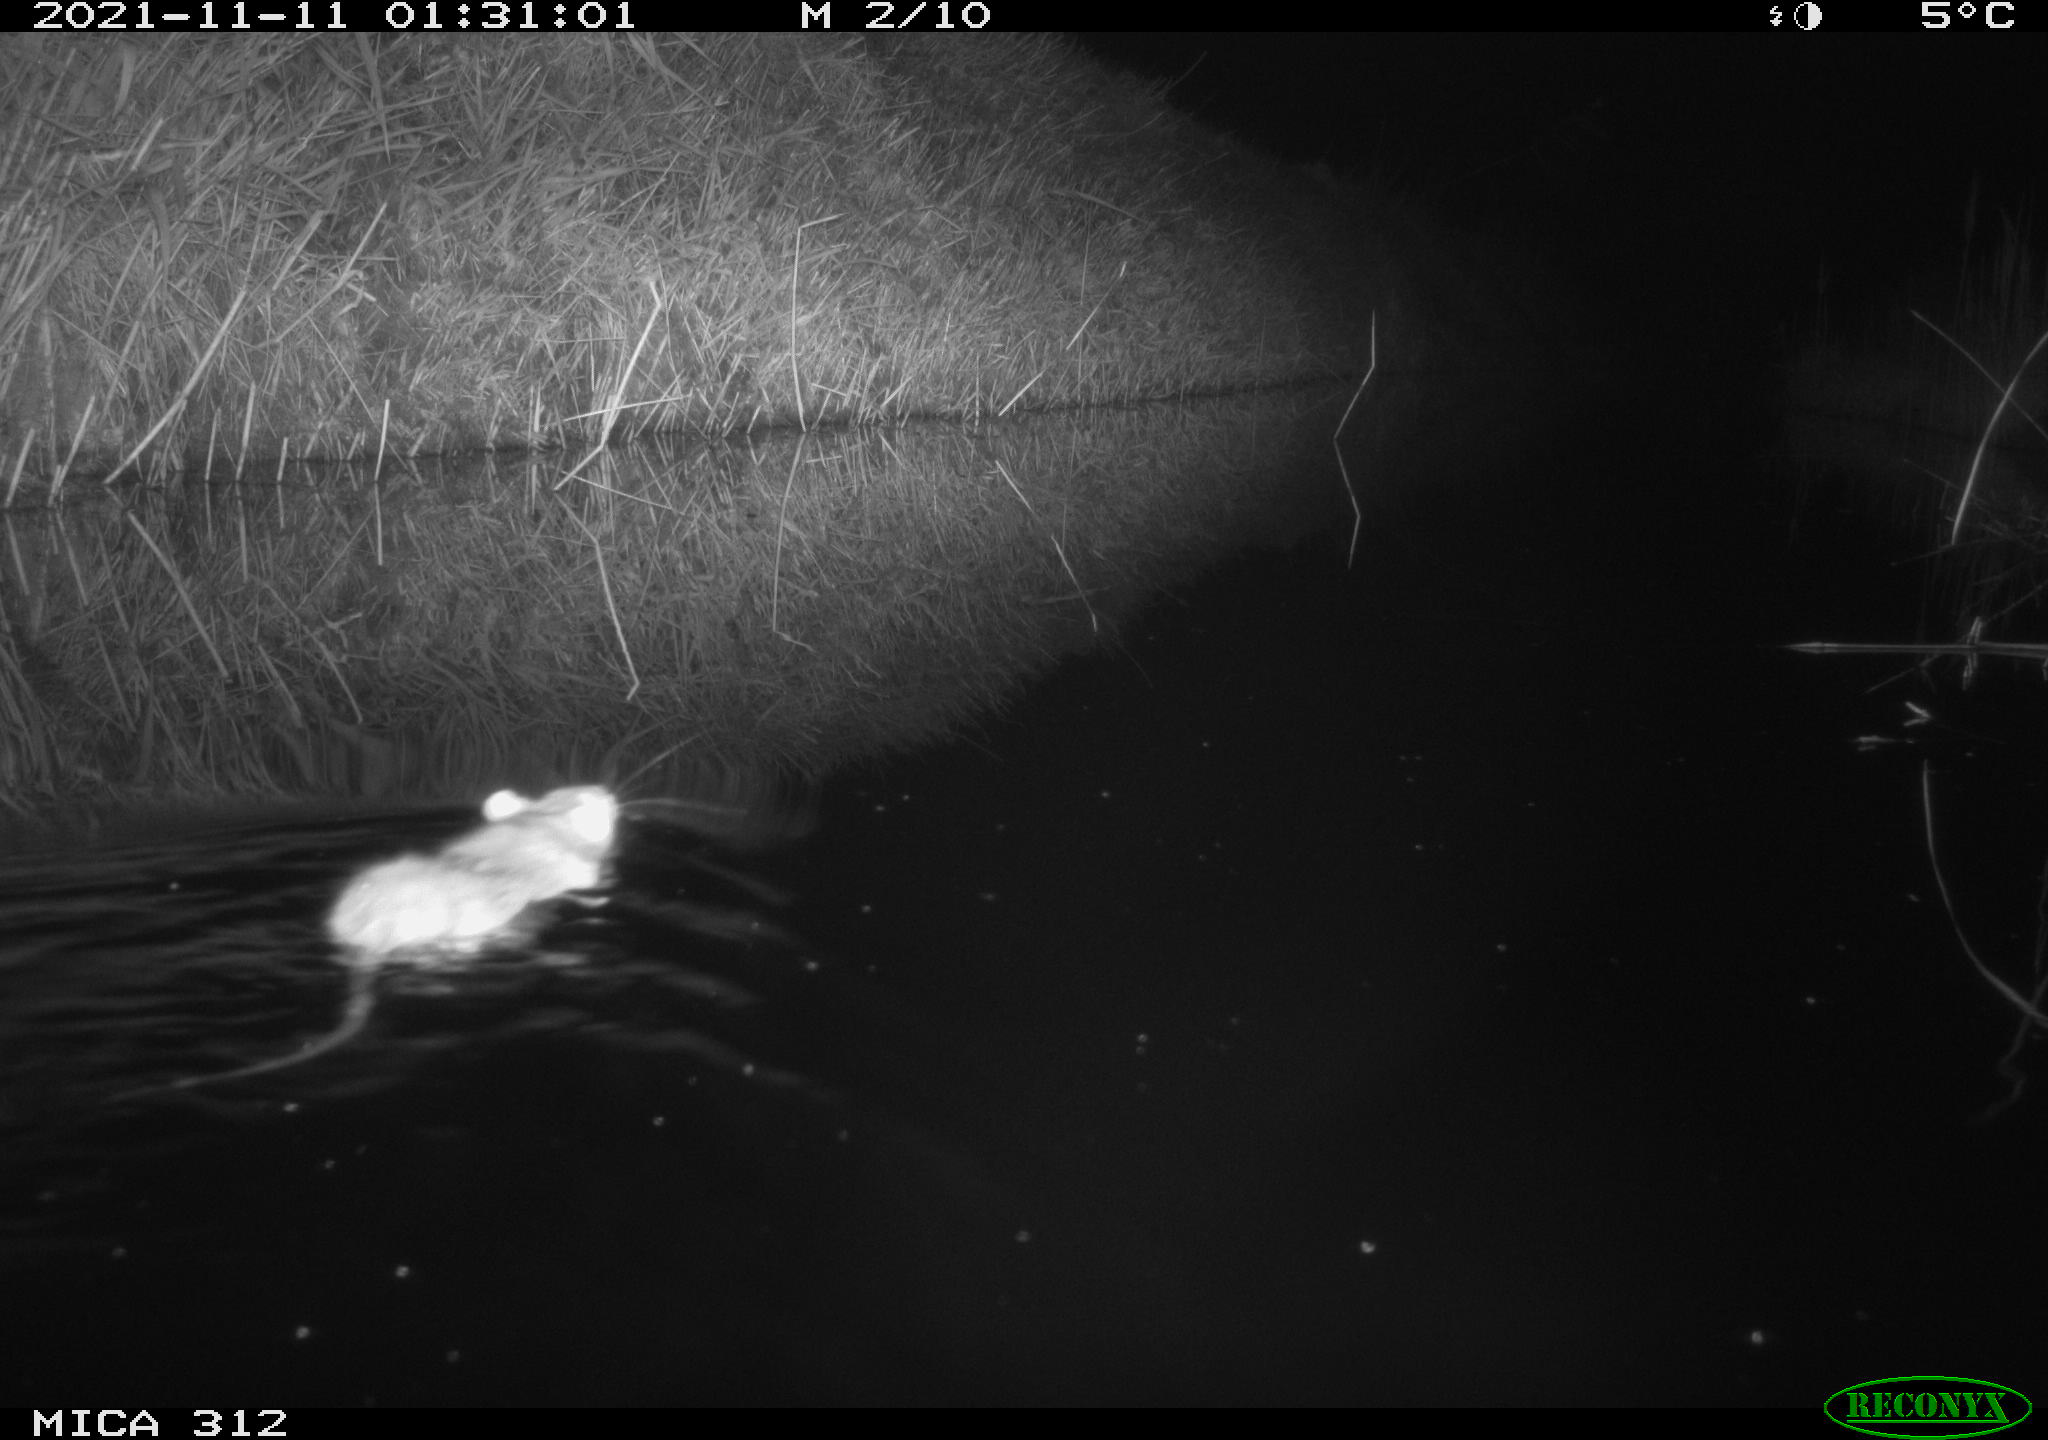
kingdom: Animalia
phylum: Chordata
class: Mammalia
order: Rodentia
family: Muridae
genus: Rattus
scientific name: Rattus norvegicus
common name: Brown rat
